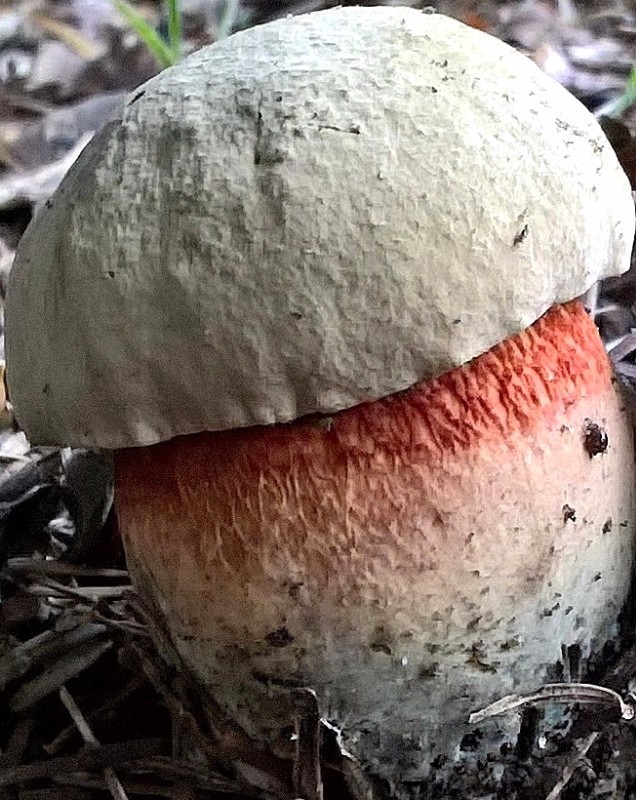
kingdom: Fungi
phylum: Basidiomycota
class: Agaricomycetes
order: Boletales
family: Boletaceae
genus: Caloboletus
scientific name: Caloboletus calopus
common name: skønfodet rørhat
